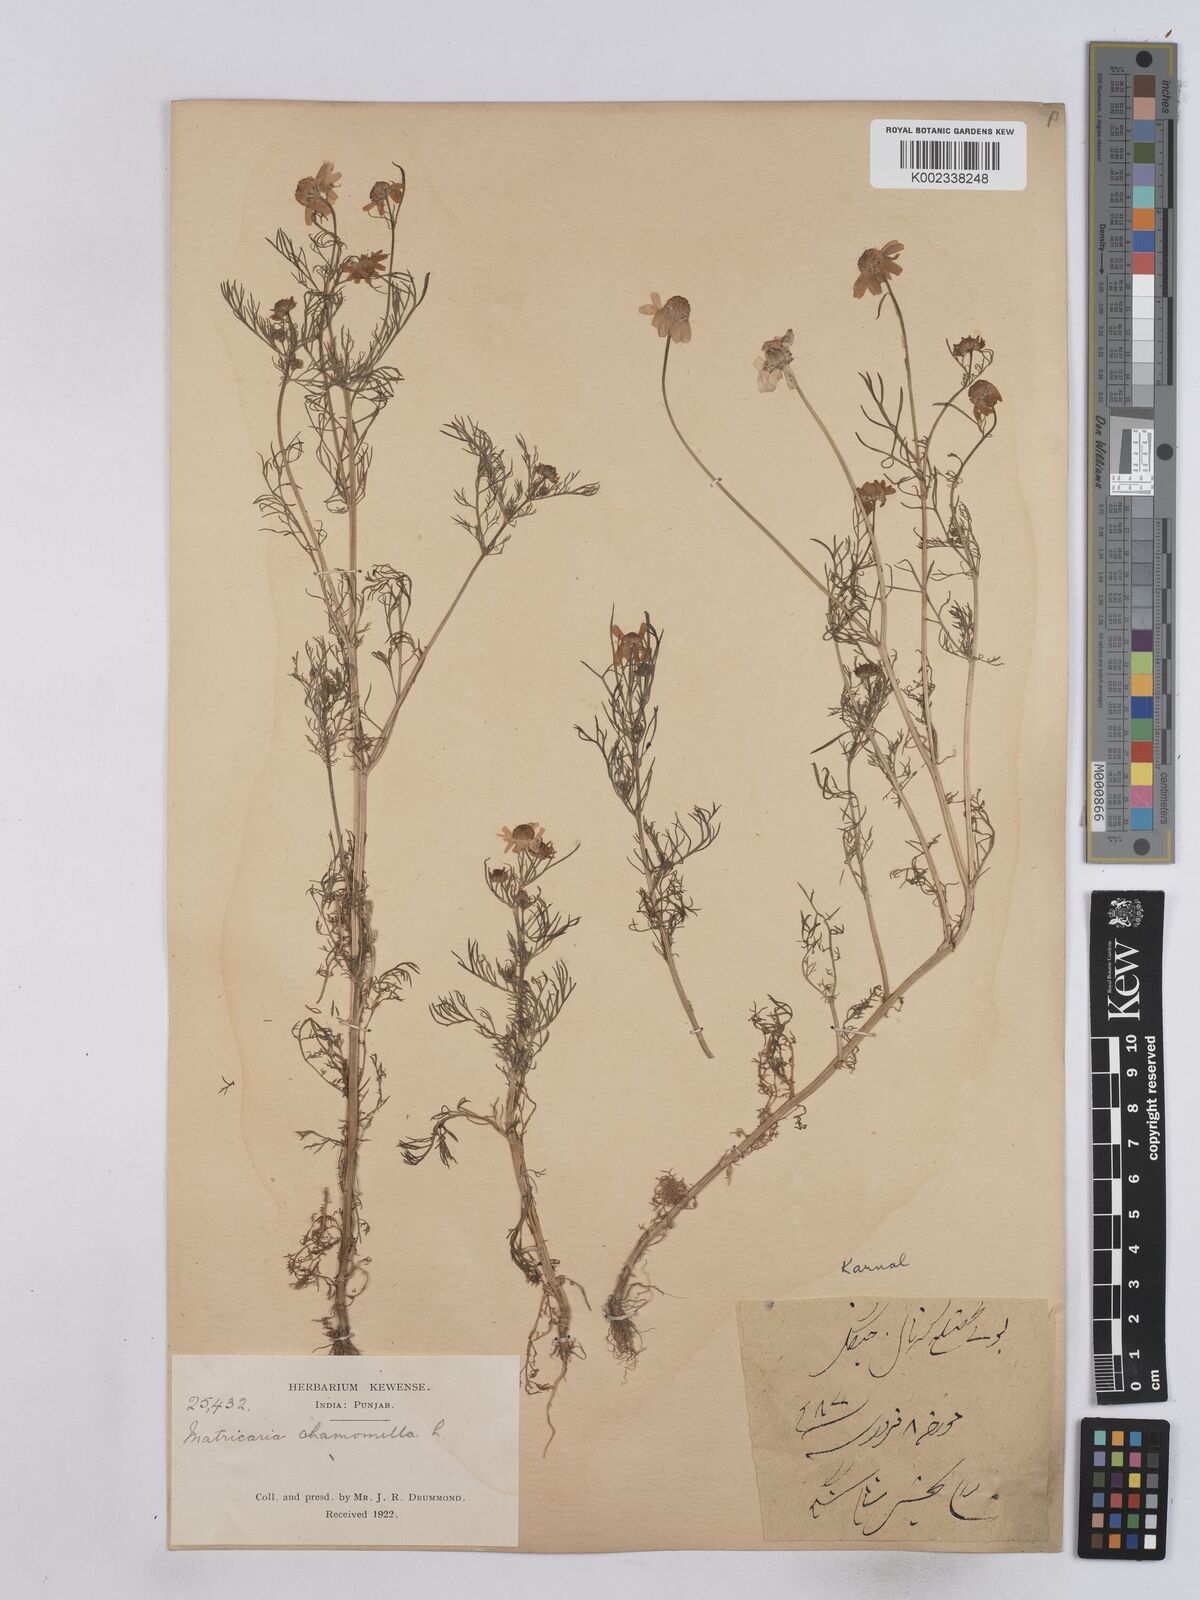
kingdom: Plantae
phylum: Tracheophyta
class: Magnoliopsida
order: Asterales
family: Asteraceae
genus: Matricaria
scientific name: Matricaria chamomilla
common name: Scented mayweed
